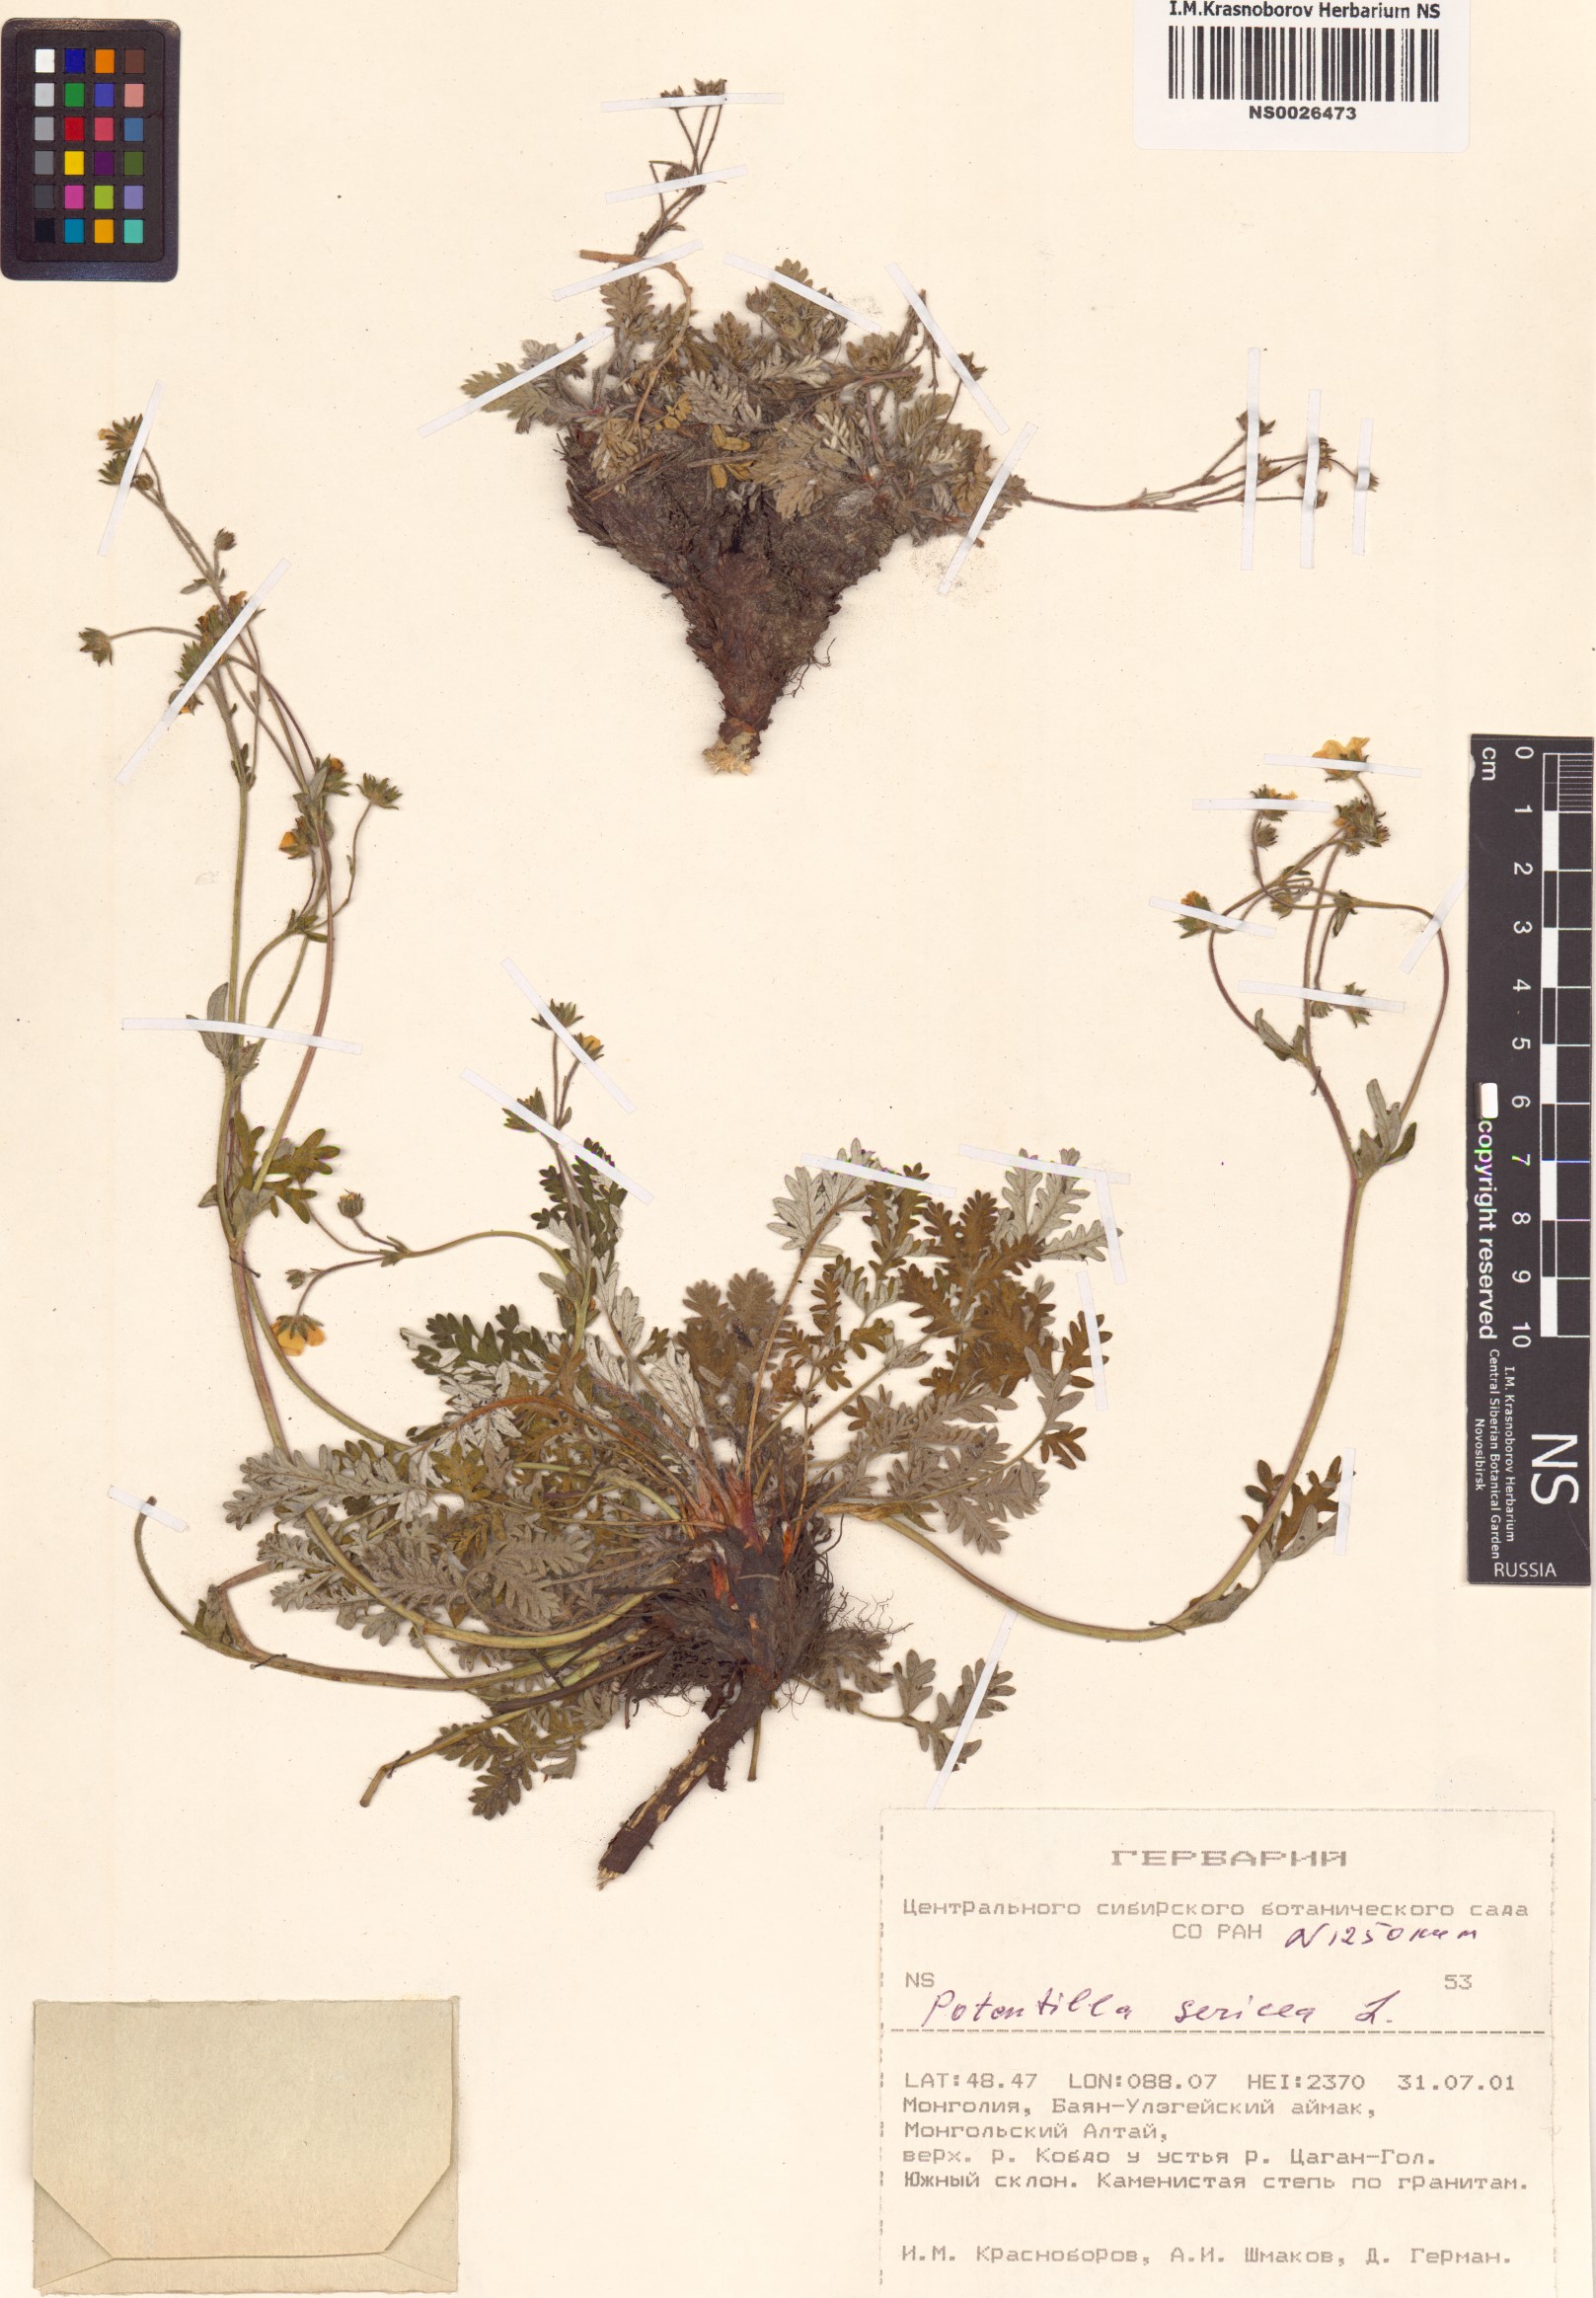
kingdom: Plantae
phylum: Tracheophyta
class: Magnoliopsida
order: Rosales
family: Rosaceae
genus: Potentilla
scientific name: Potentilla sericea
